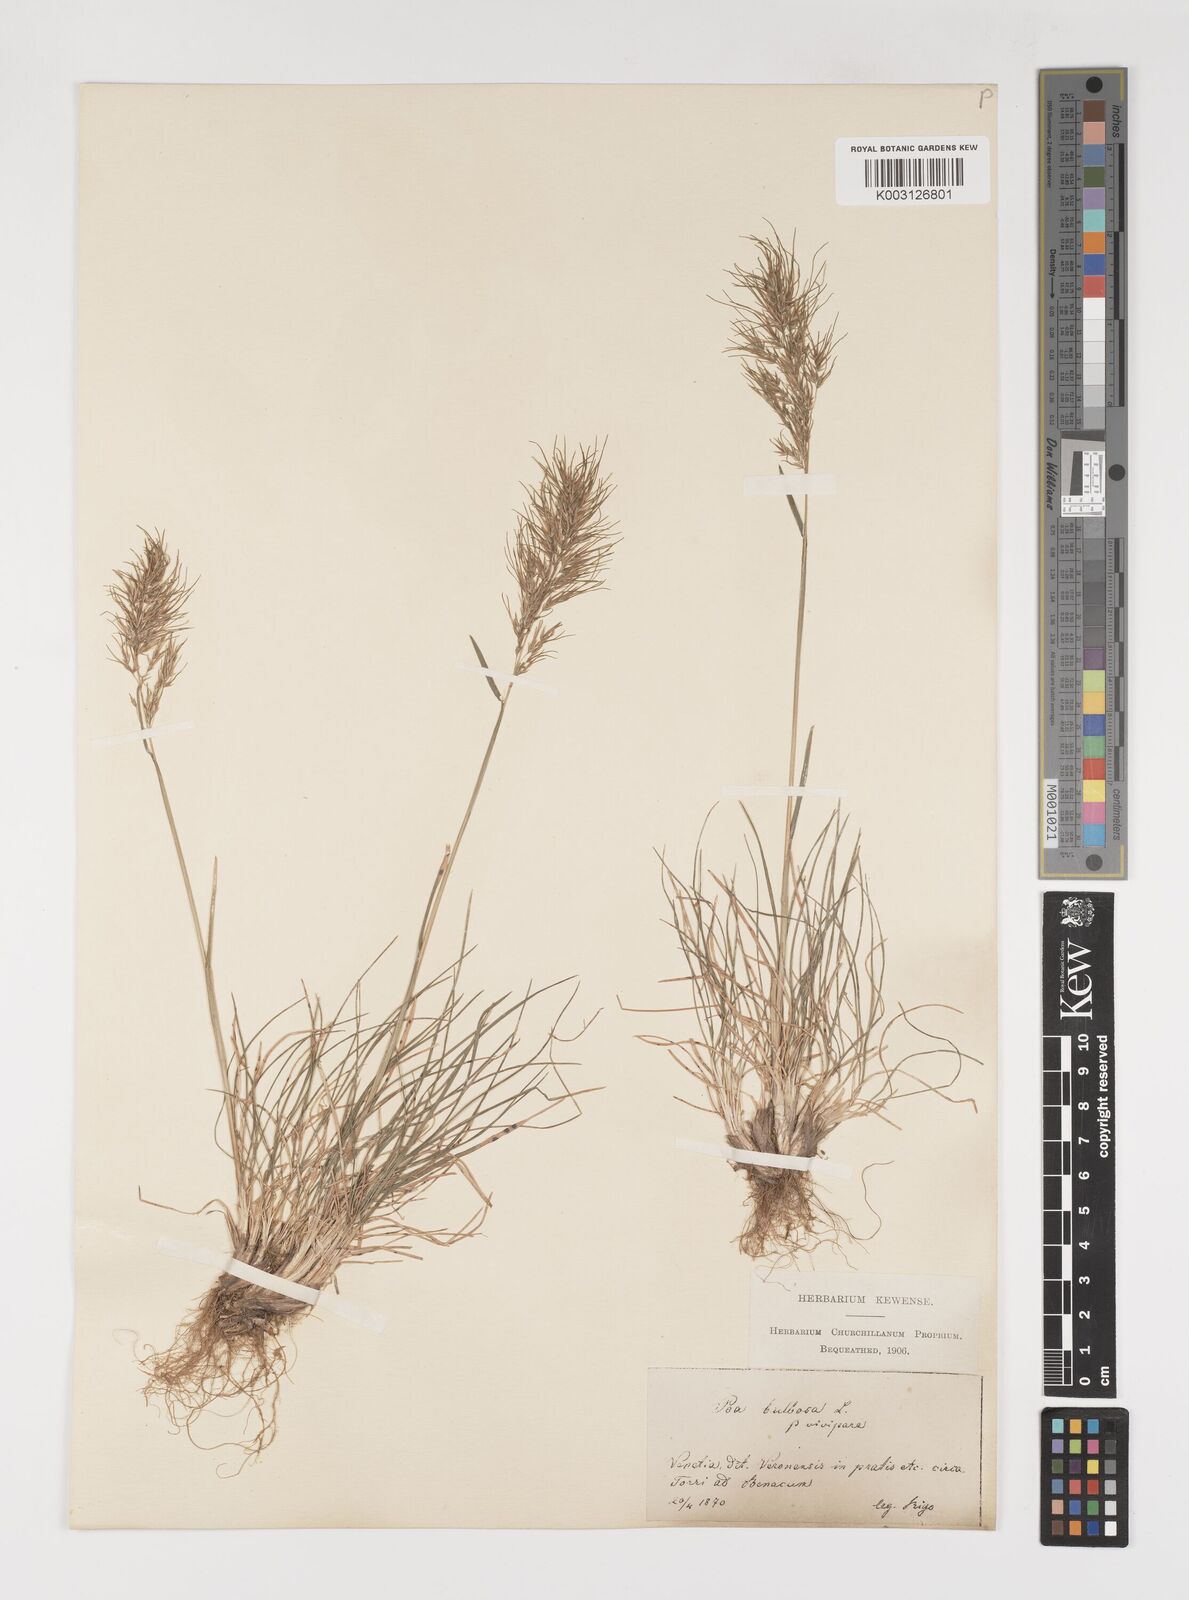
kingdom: Plantae
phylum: Tracheophyta
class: Liliopsida
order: Poales
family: Poaceae
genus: Poa
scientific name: Poa bulbosa
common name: Bulbous bluegrass
